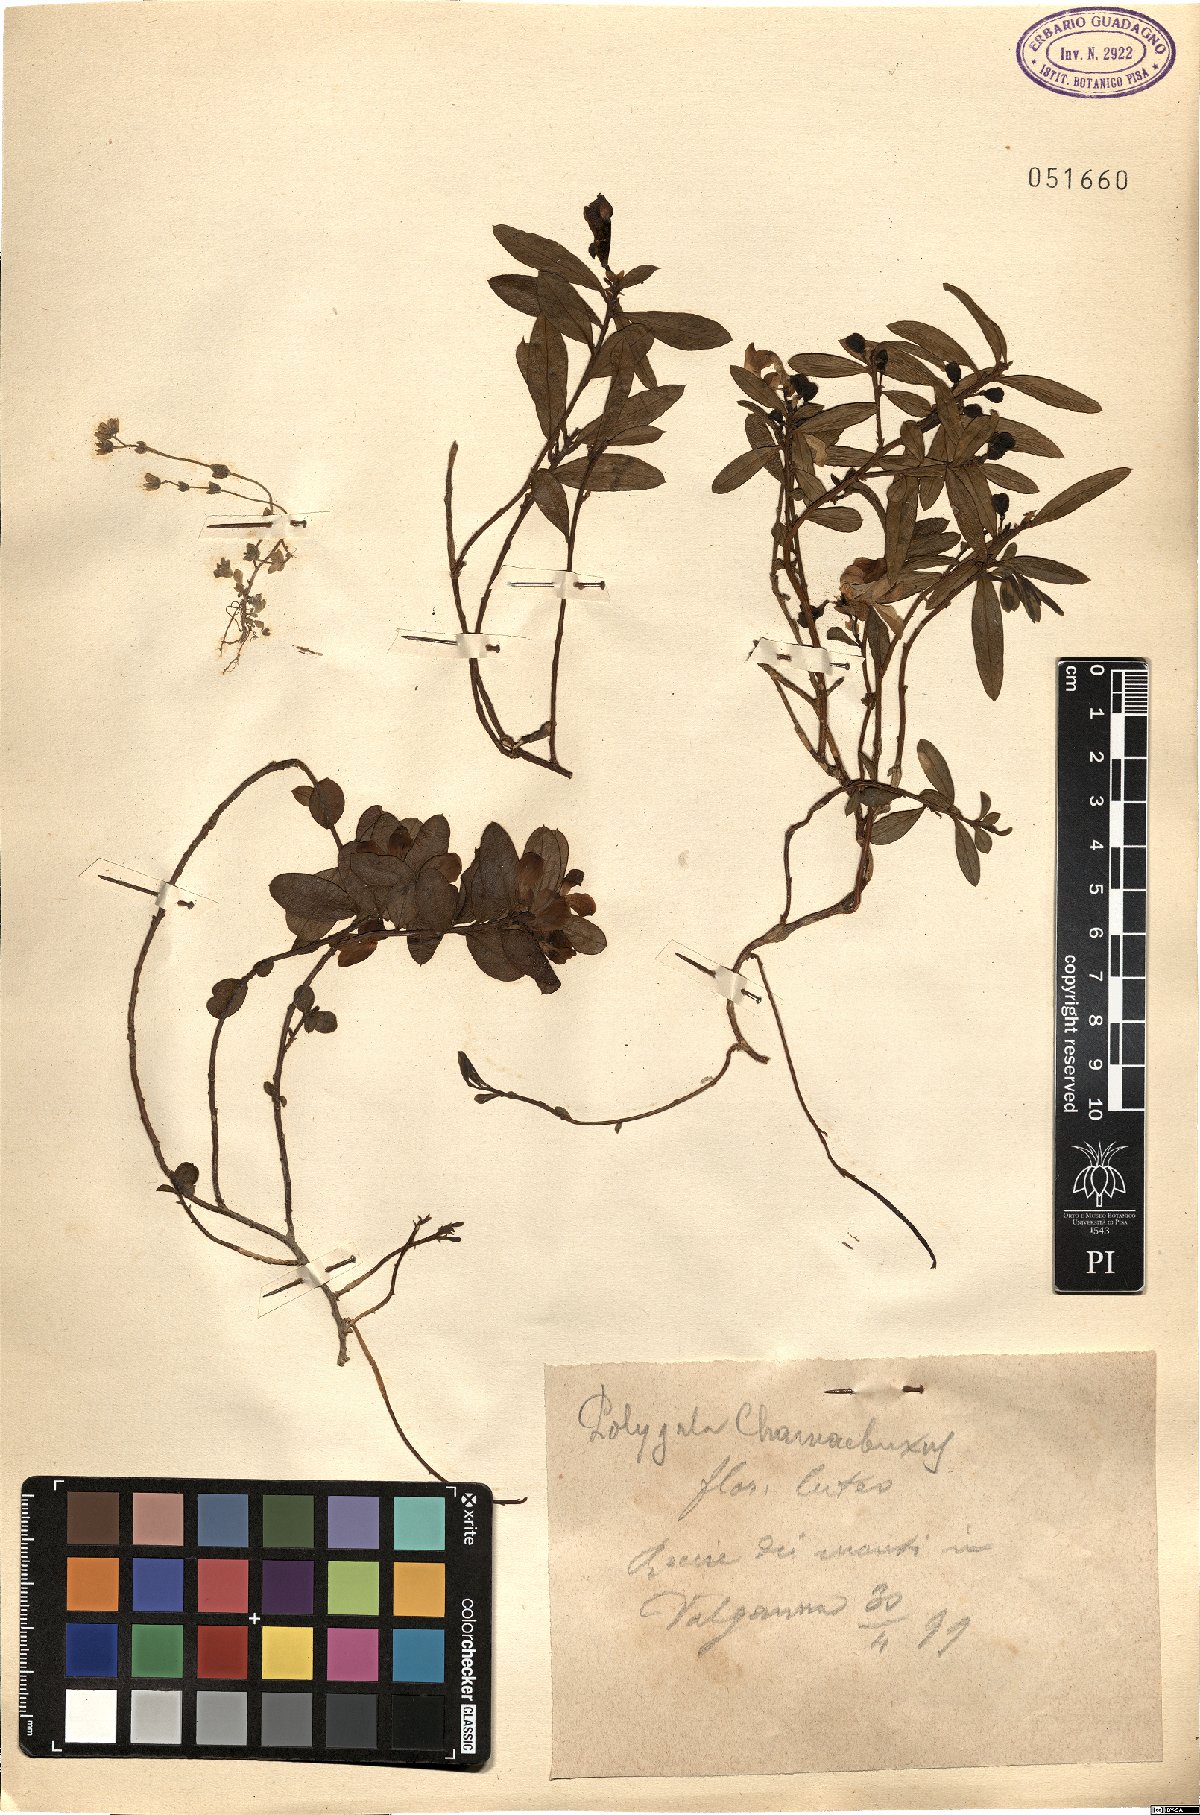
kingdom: Plantae
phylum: Tracheophyta
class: Magnoliopsida
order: Fabales
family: Polygalaceae
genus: Polygaloides
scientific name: Polygaloides chamaebuxus
